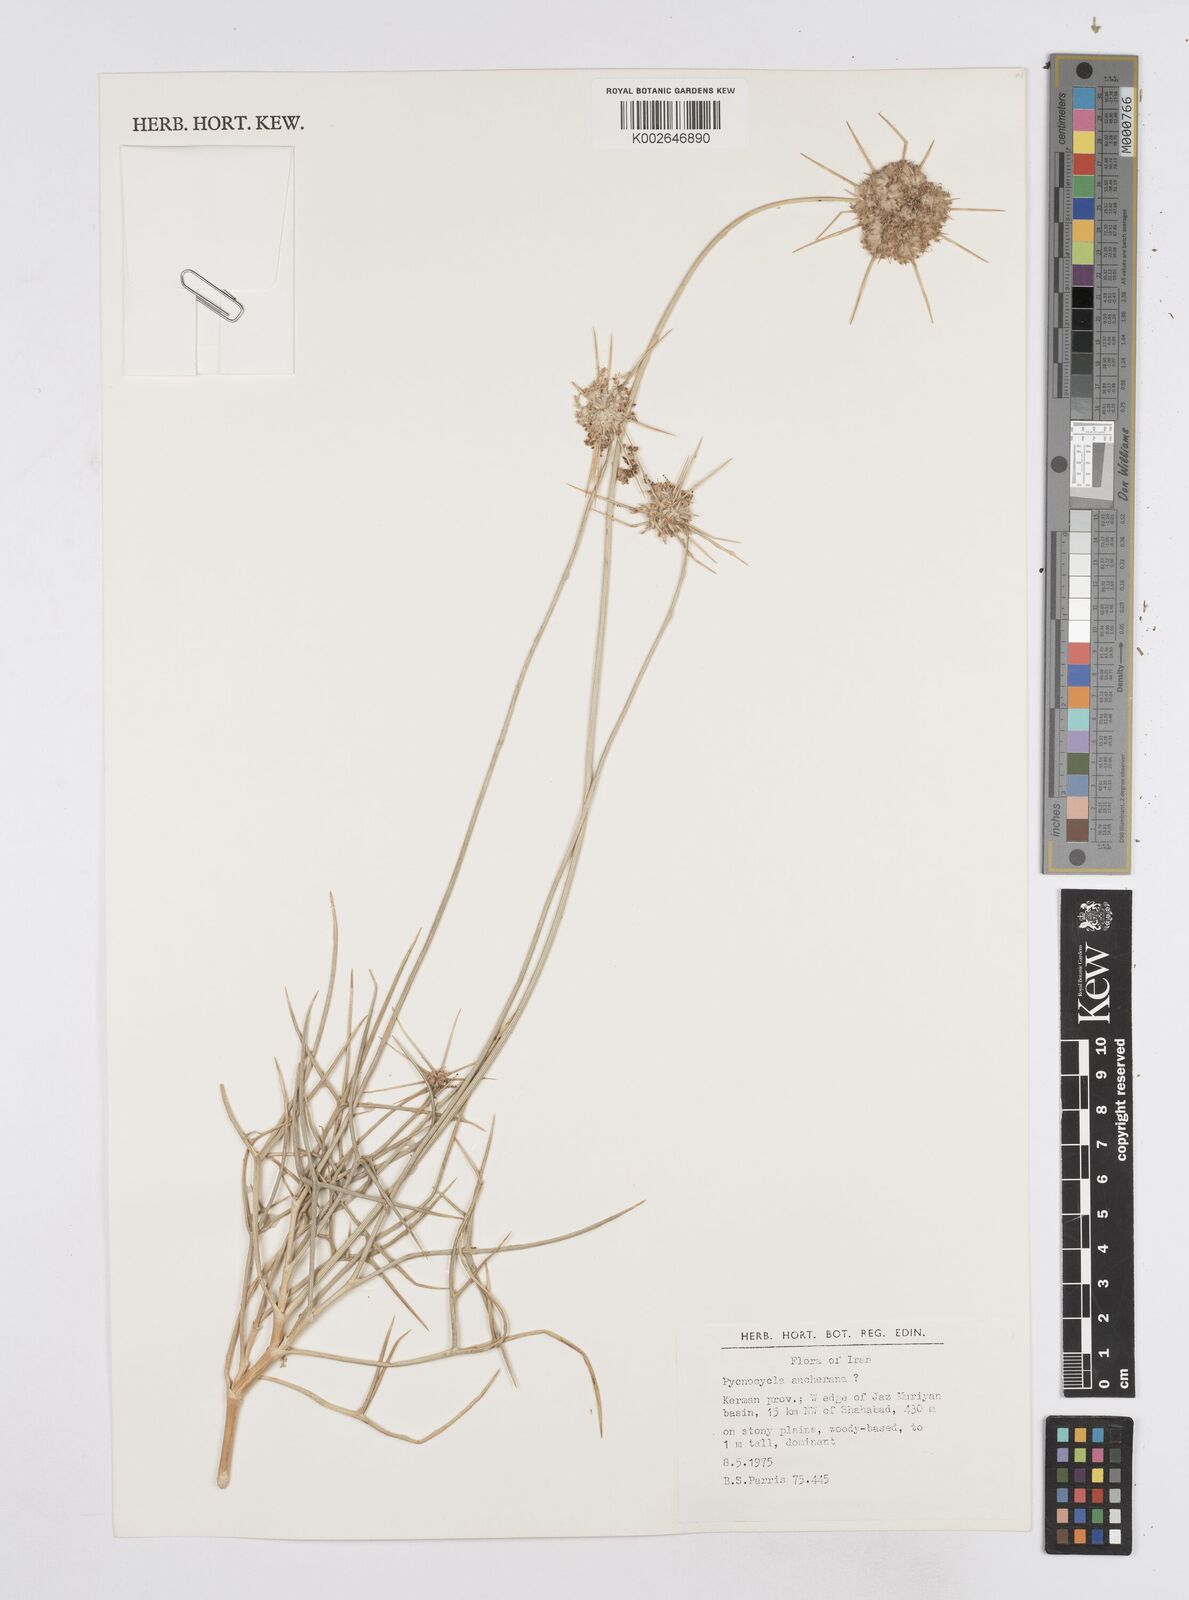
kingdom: Plantae
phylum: Tracheophyta
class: Magnoliopsida
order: Apiales
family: Apiaceae
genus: Pycnocycla
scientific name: Pycnocycla aucheriana
